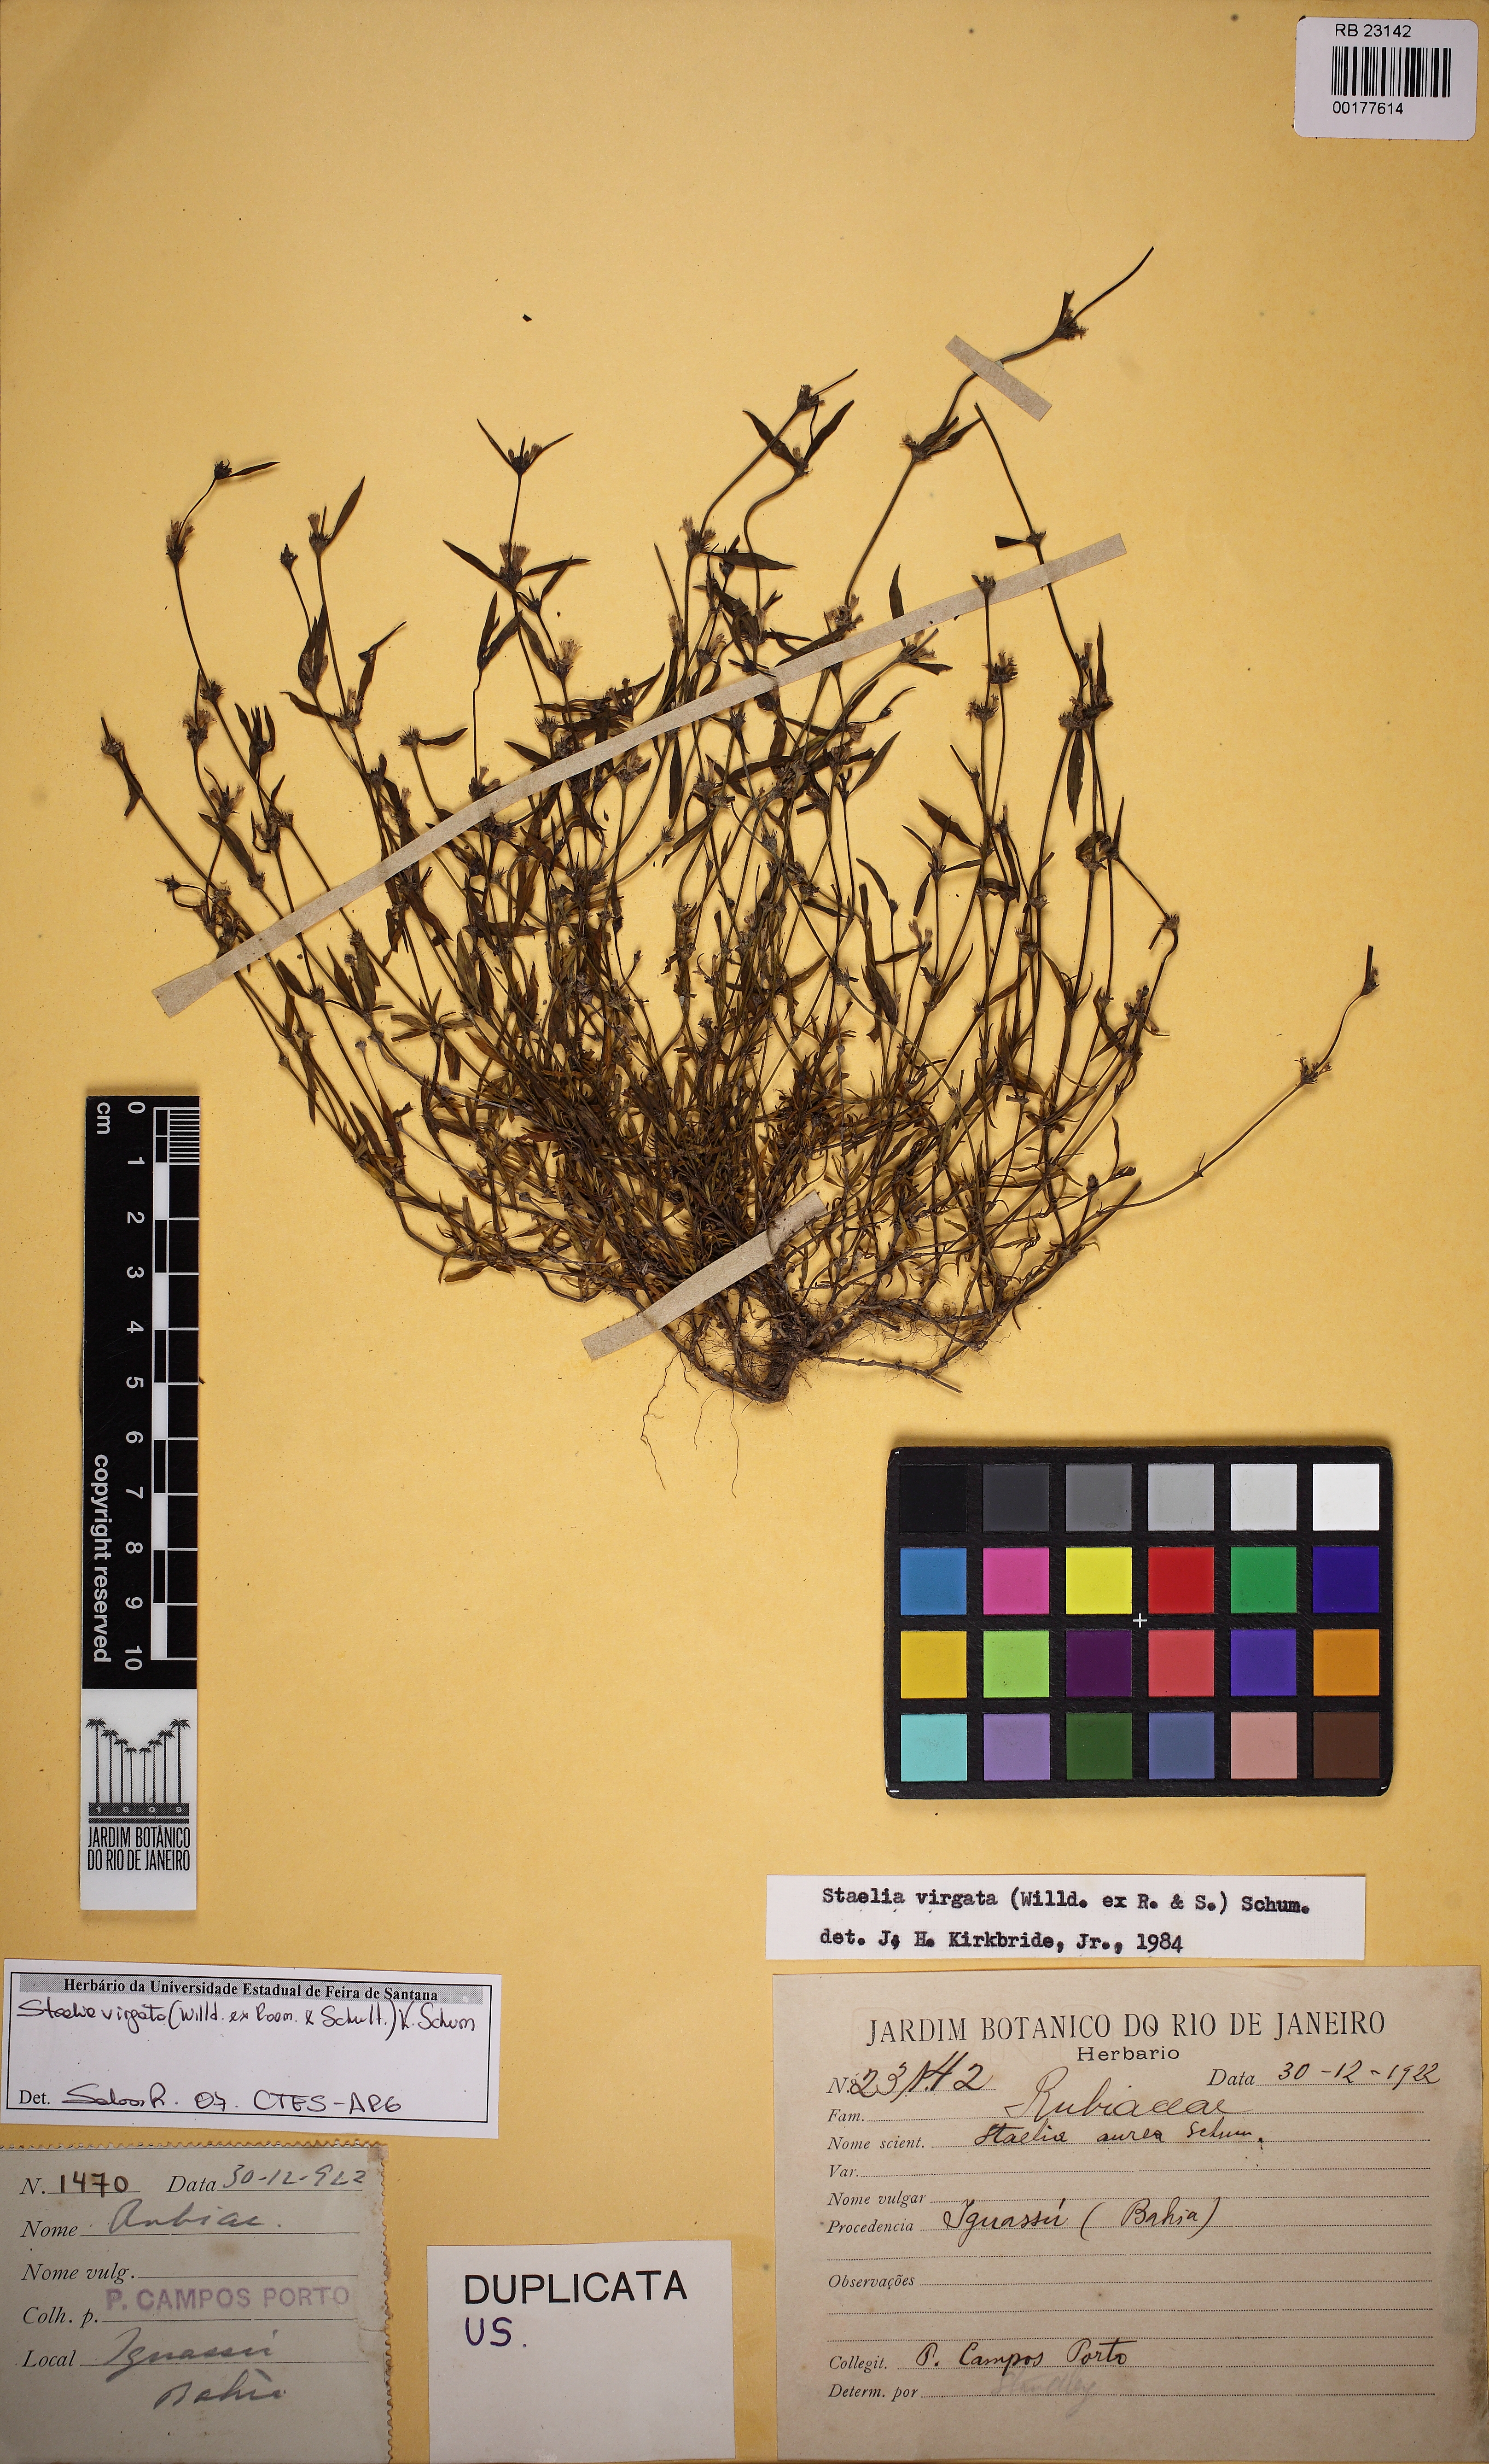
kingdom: Plantae
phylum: Tracheophyta
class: Magnoliopsida
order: Gentianales
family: Rubiaceae
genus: Staelia
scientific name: Staelia virgata
